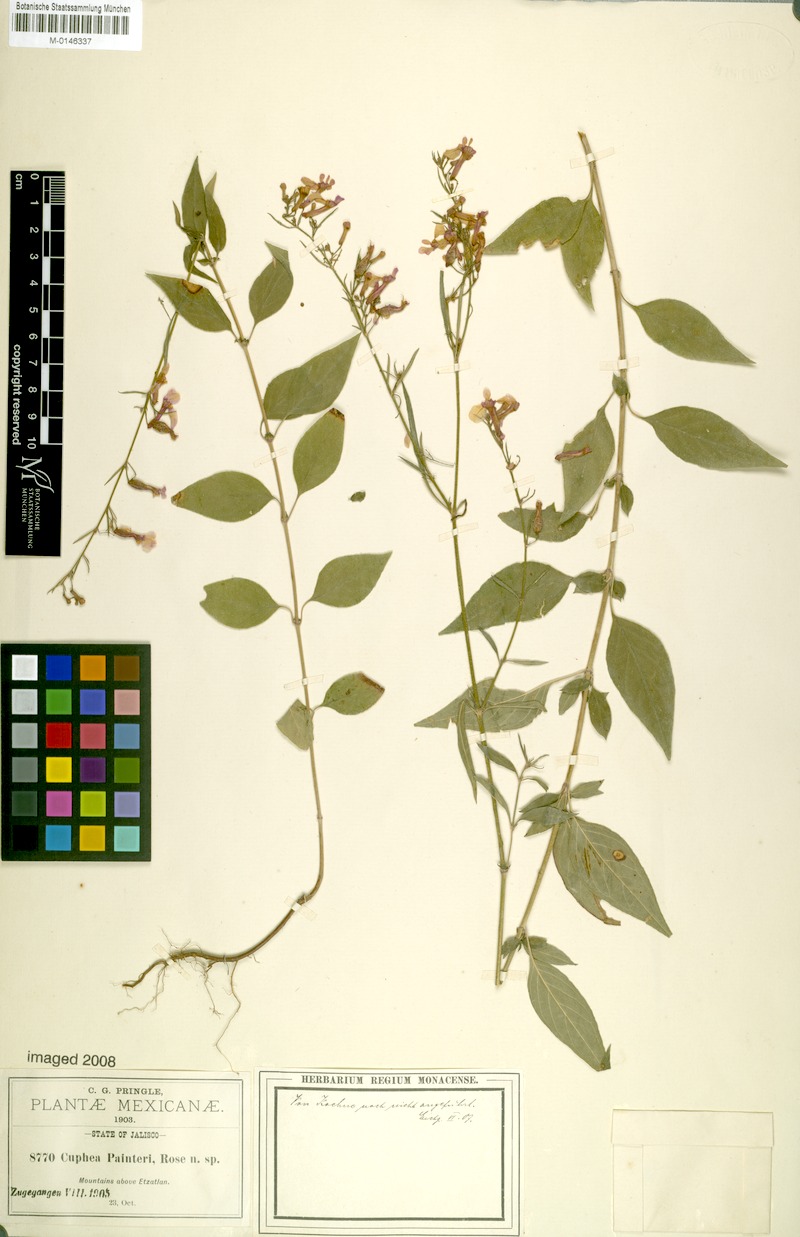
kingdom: Plantae
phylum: Tracheophyta
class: Magnoliopsida
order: Myrtales
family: Lythraceae
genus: Cuphea
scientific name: Cuphea painteri
